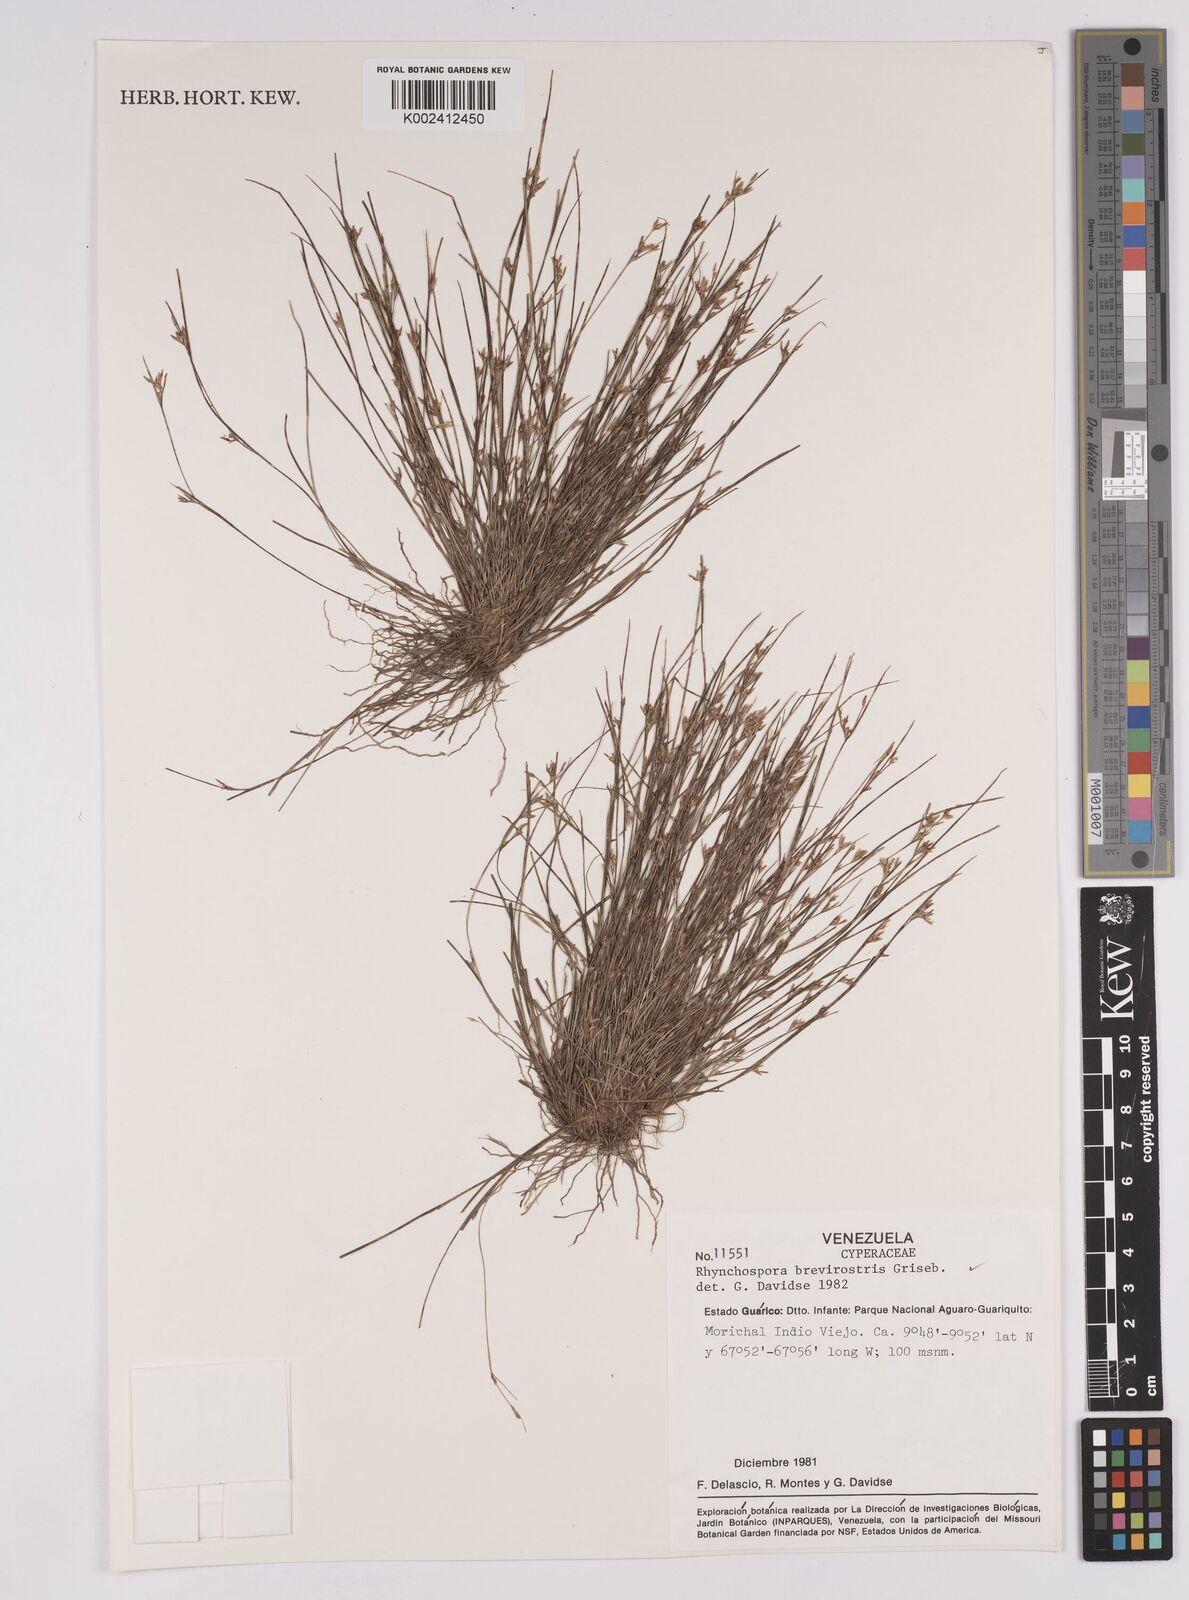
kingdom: Plantae
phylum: Tracheophyta
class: Liliopsida
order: Poales
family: Cyperaceae
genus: Rhynchospora
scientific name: Rhynchospora brevirostris
